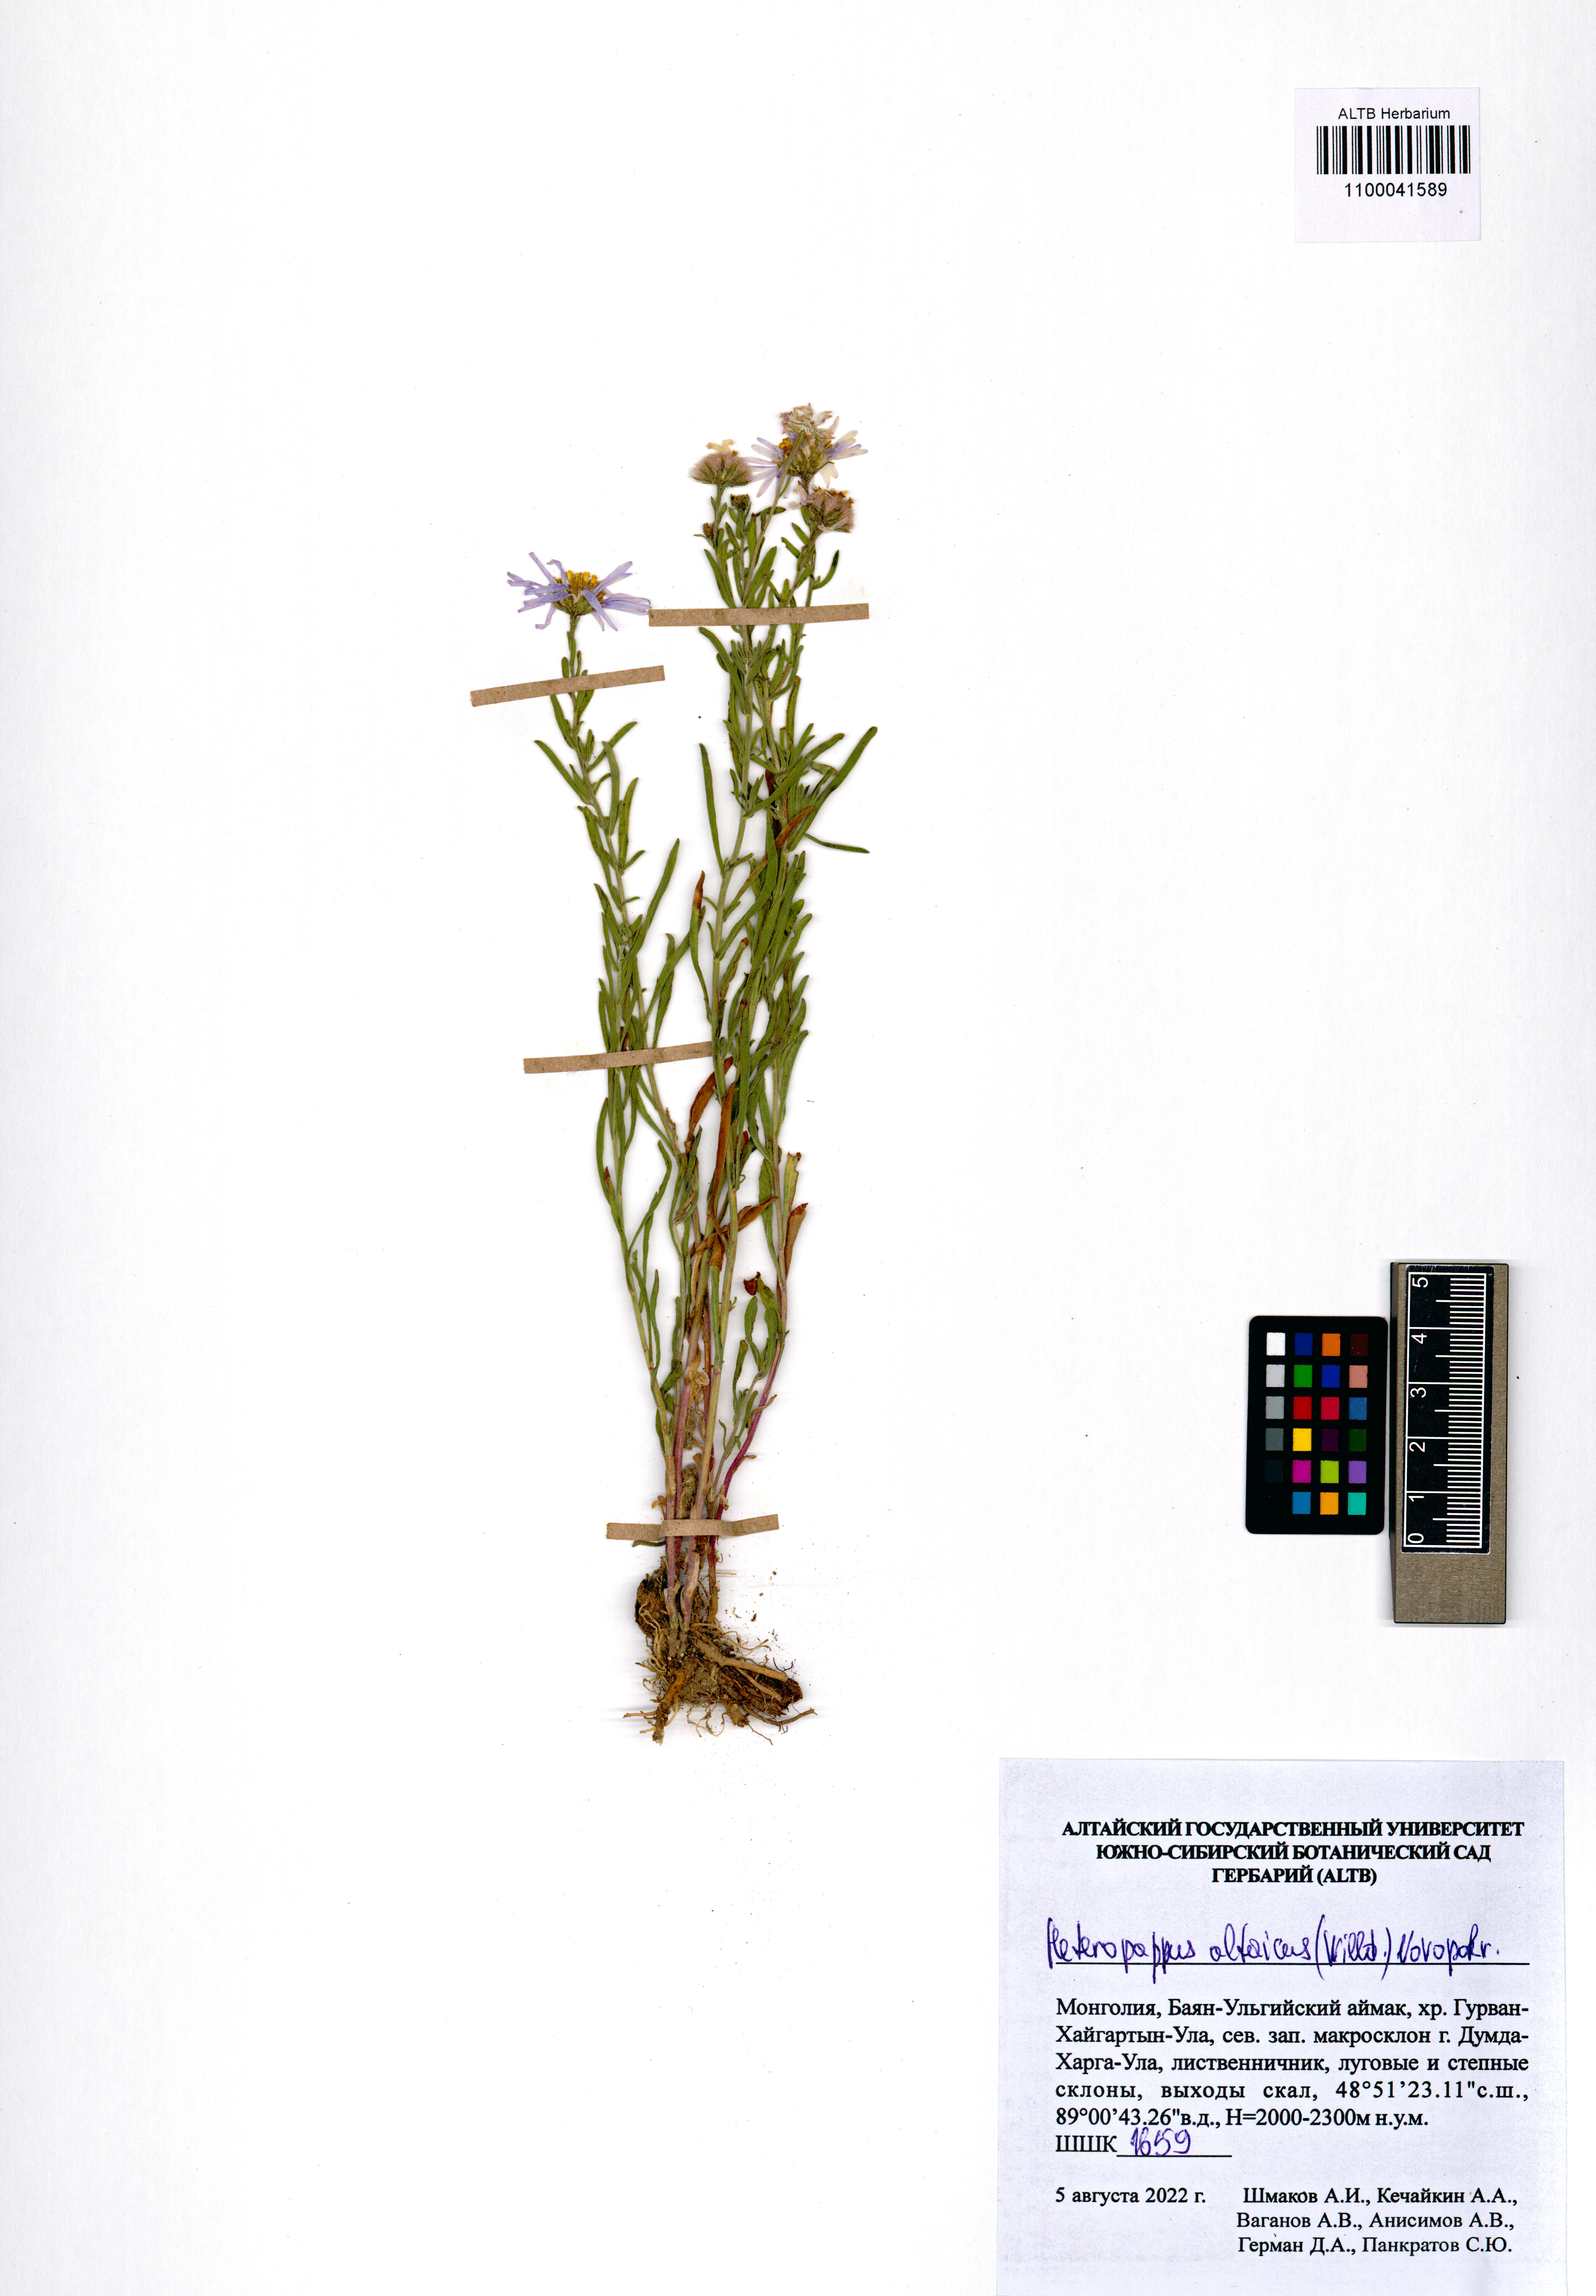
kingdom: Plantae
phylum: Tracheophyta
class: Magnoliopsida
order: Asterales
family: Asteraceae
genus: Heteropappus
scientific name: Heteropappus altaicus
